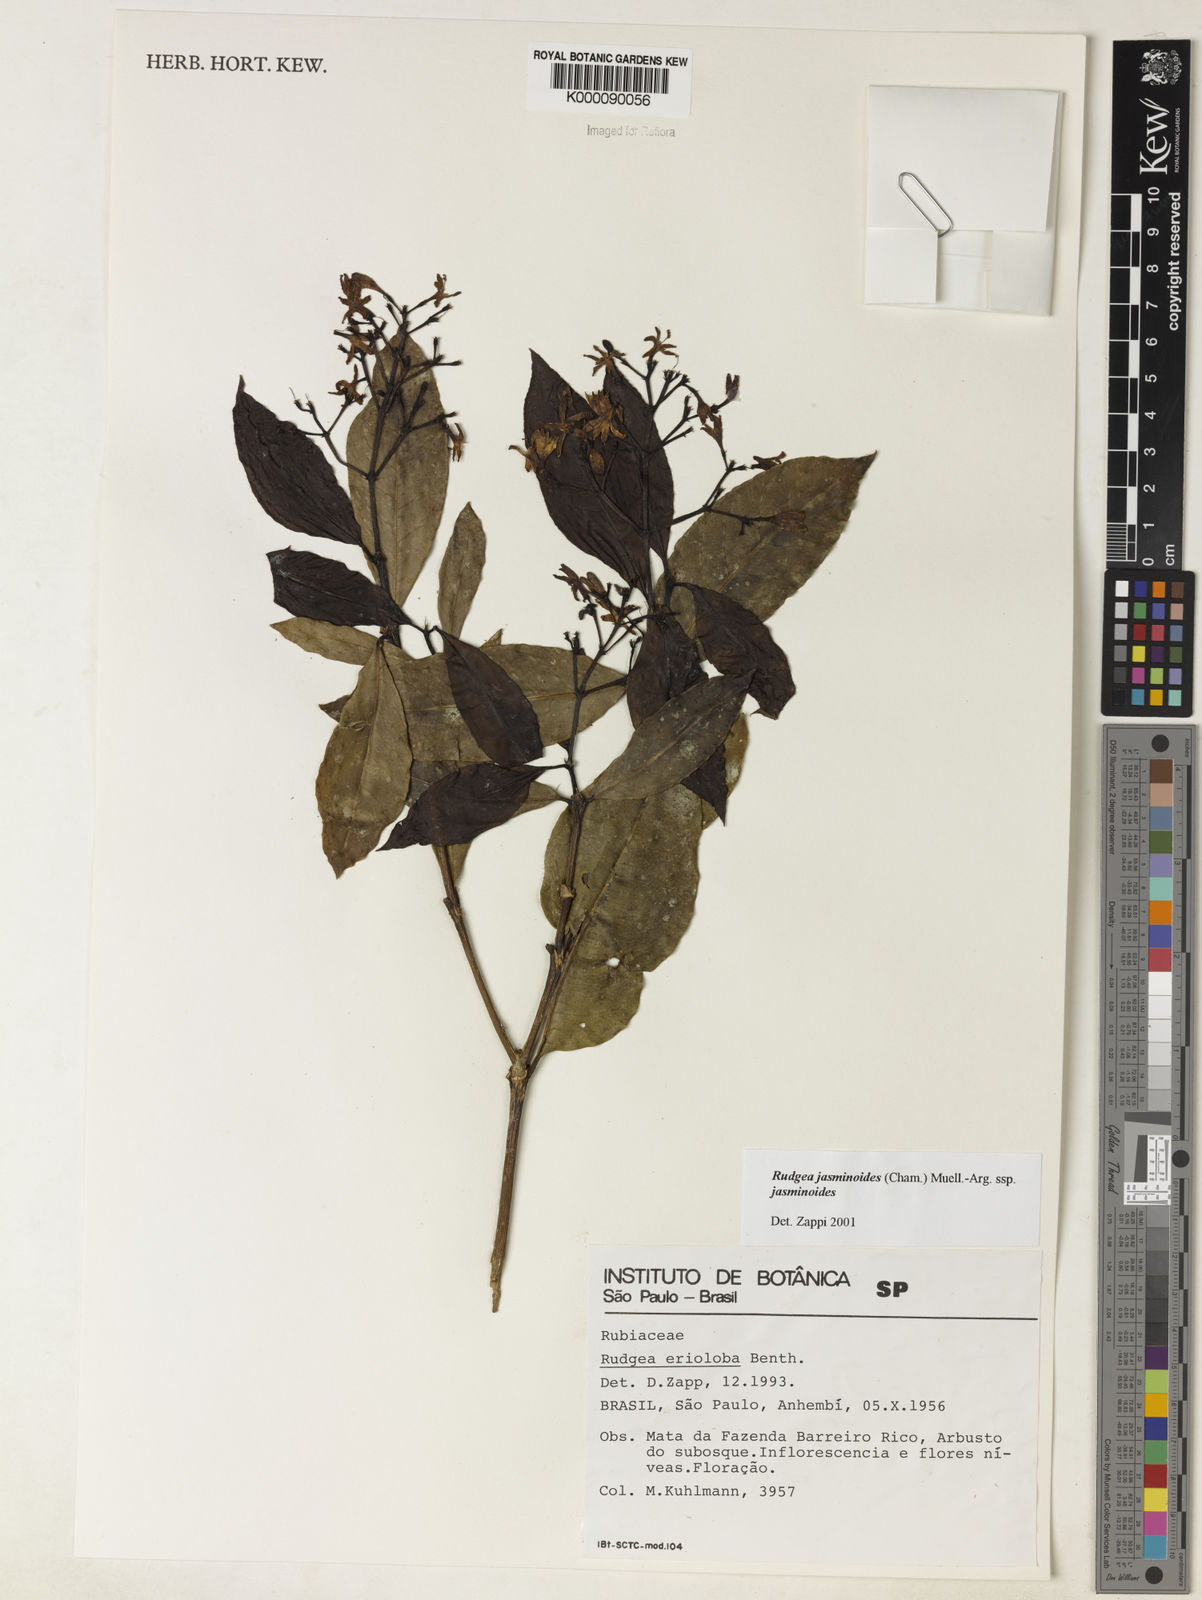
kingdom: Plantae
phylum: Tracheophyta
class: Magnoliopsida
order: Gentianales
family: Rubiaceae
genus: Rudgea
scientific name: Rudgea jasminoides
